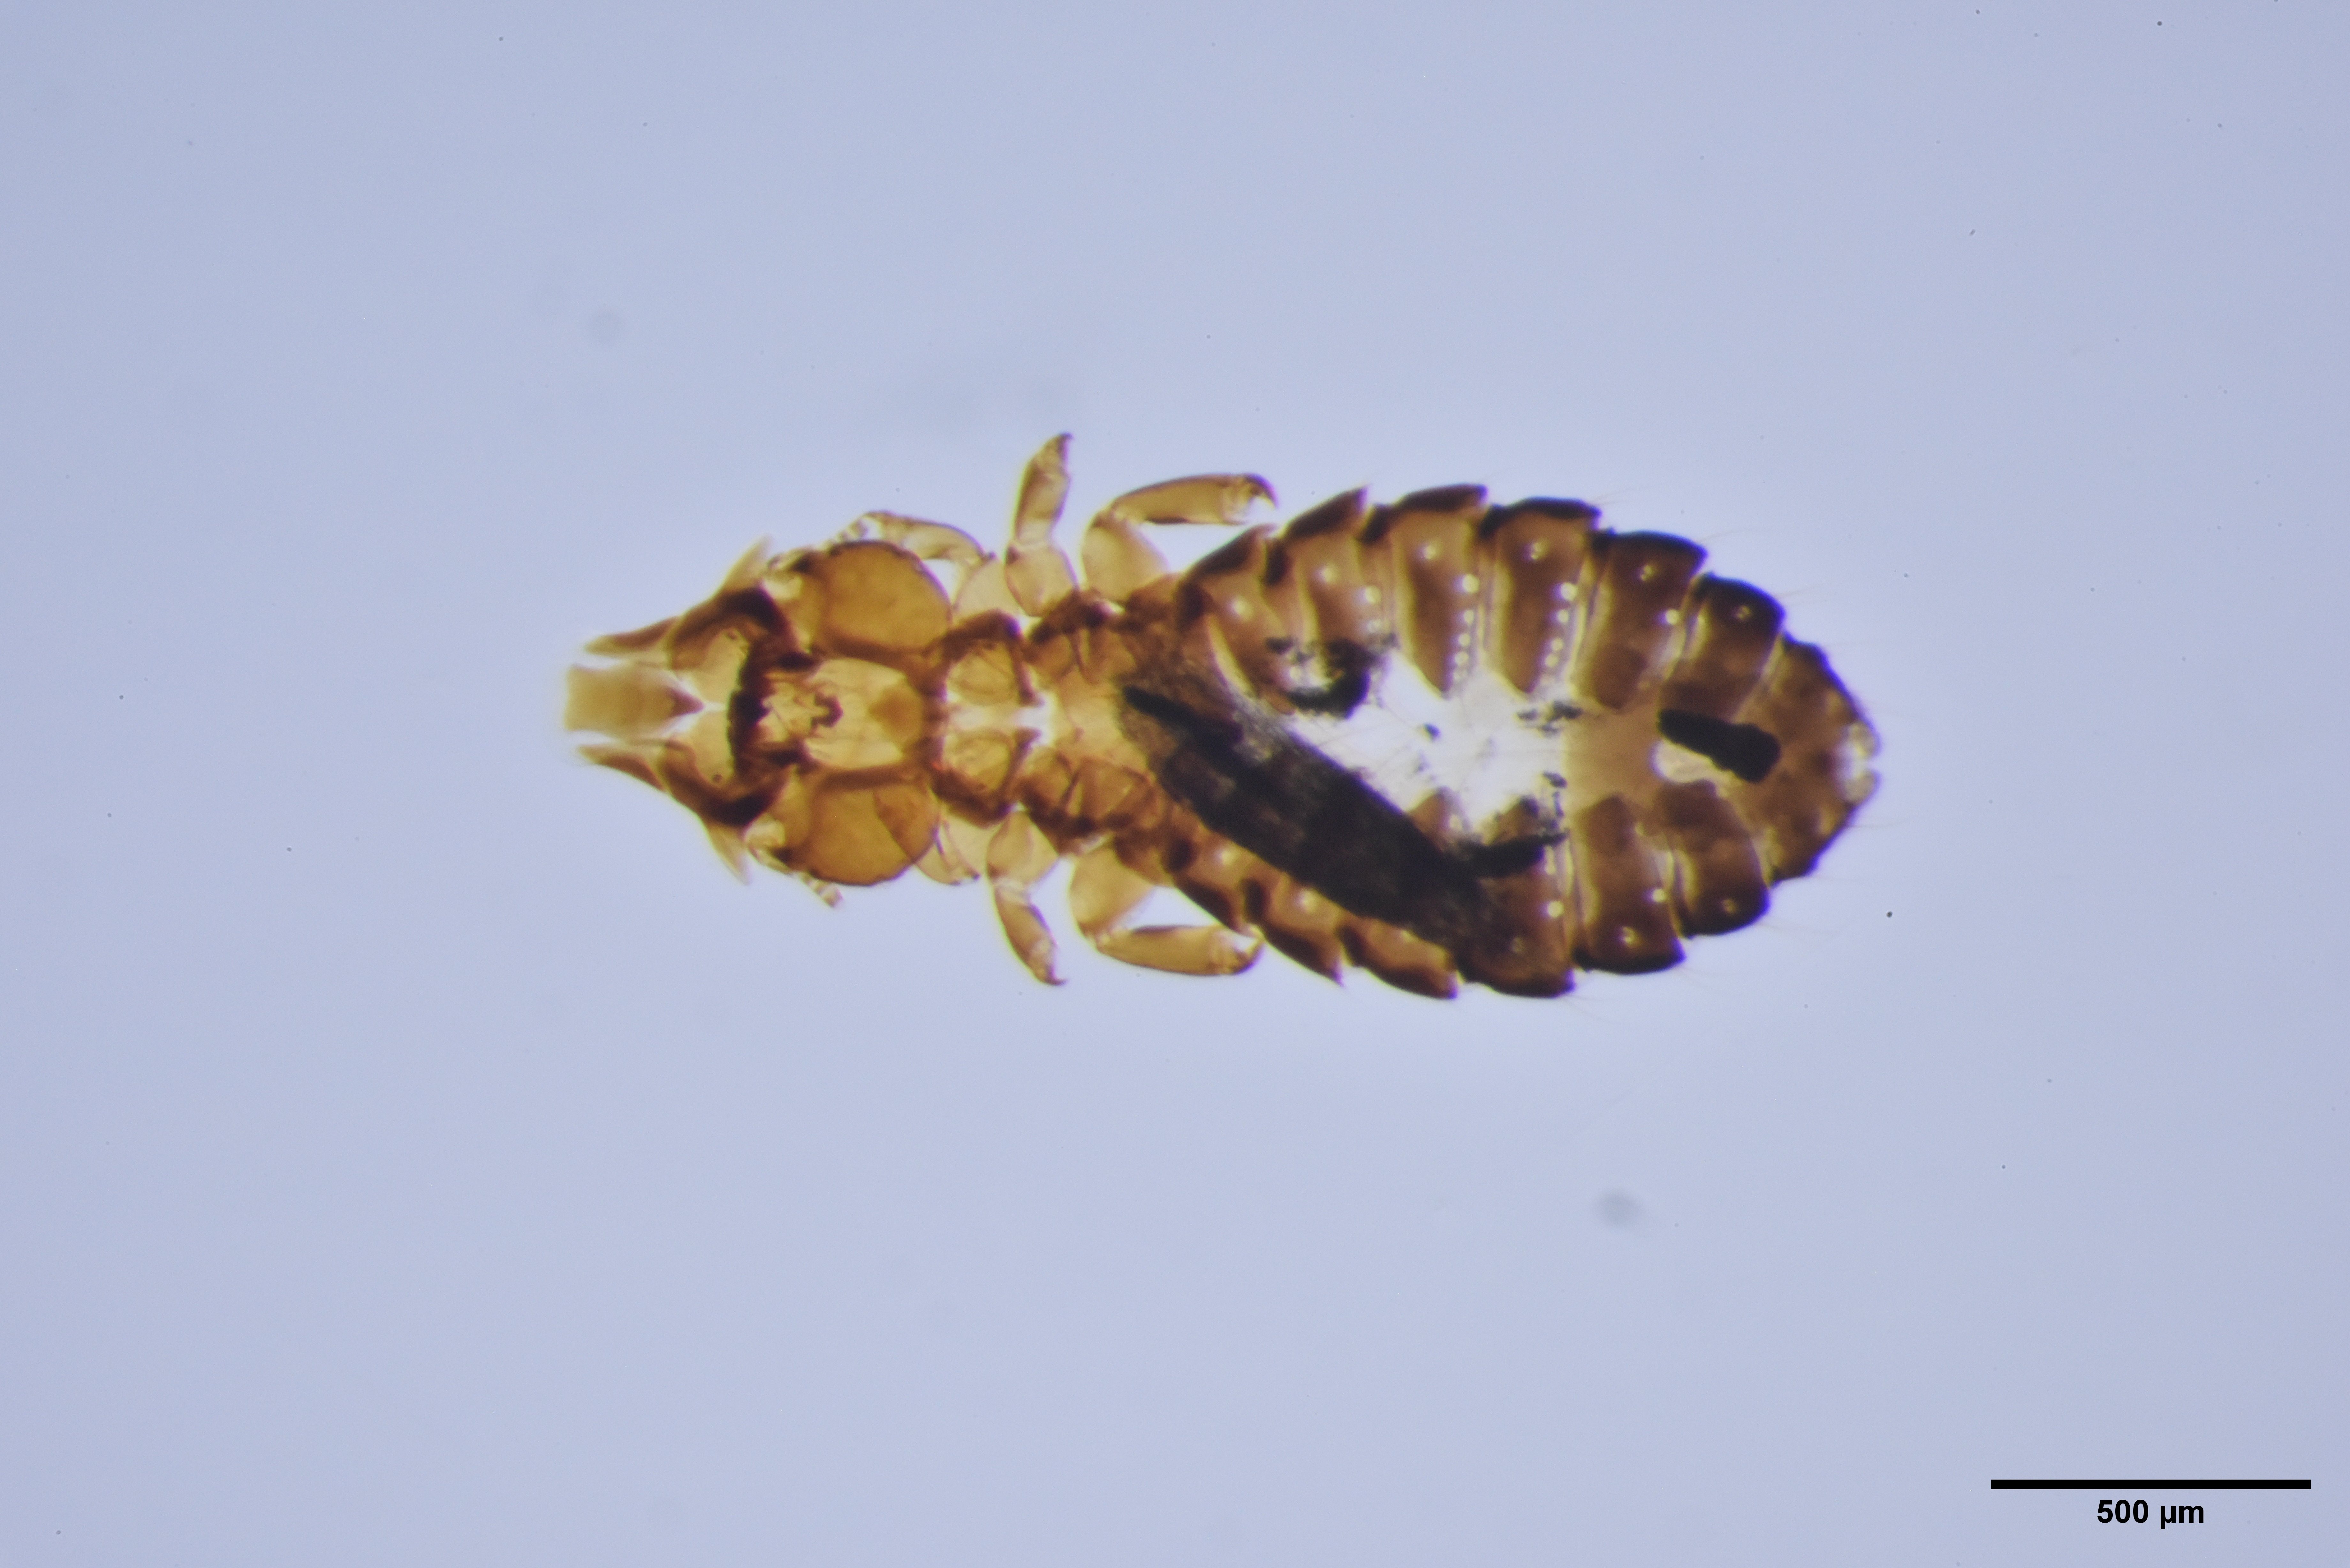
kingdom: Animalia
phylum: Arthropoda
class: Insecta
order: Psocodea
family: Philopteridae
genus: Saemundssonia
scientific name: Saemundssonia fraterculae
